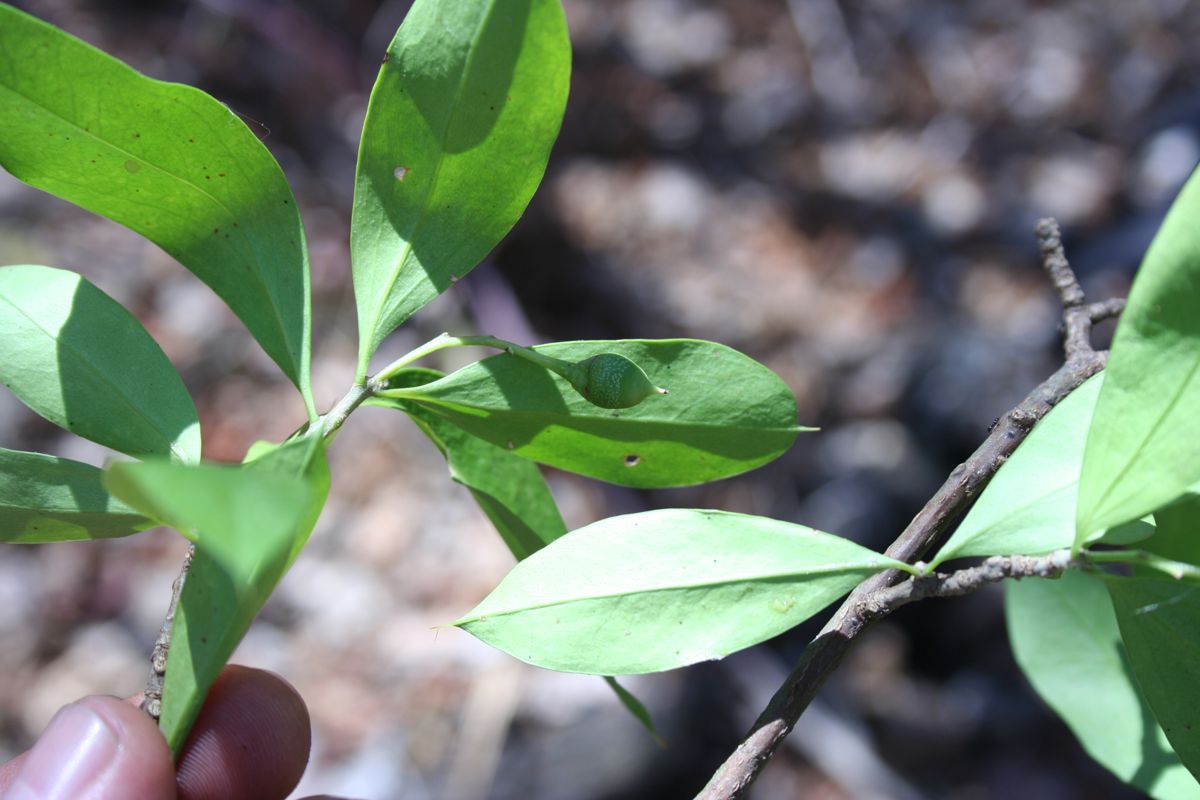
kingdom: Plantae
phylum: Tracheophyta
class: Magnoliopsida
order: Ericales
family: Primulaceae
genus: Bonellia
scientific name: Bonellia nervosa
